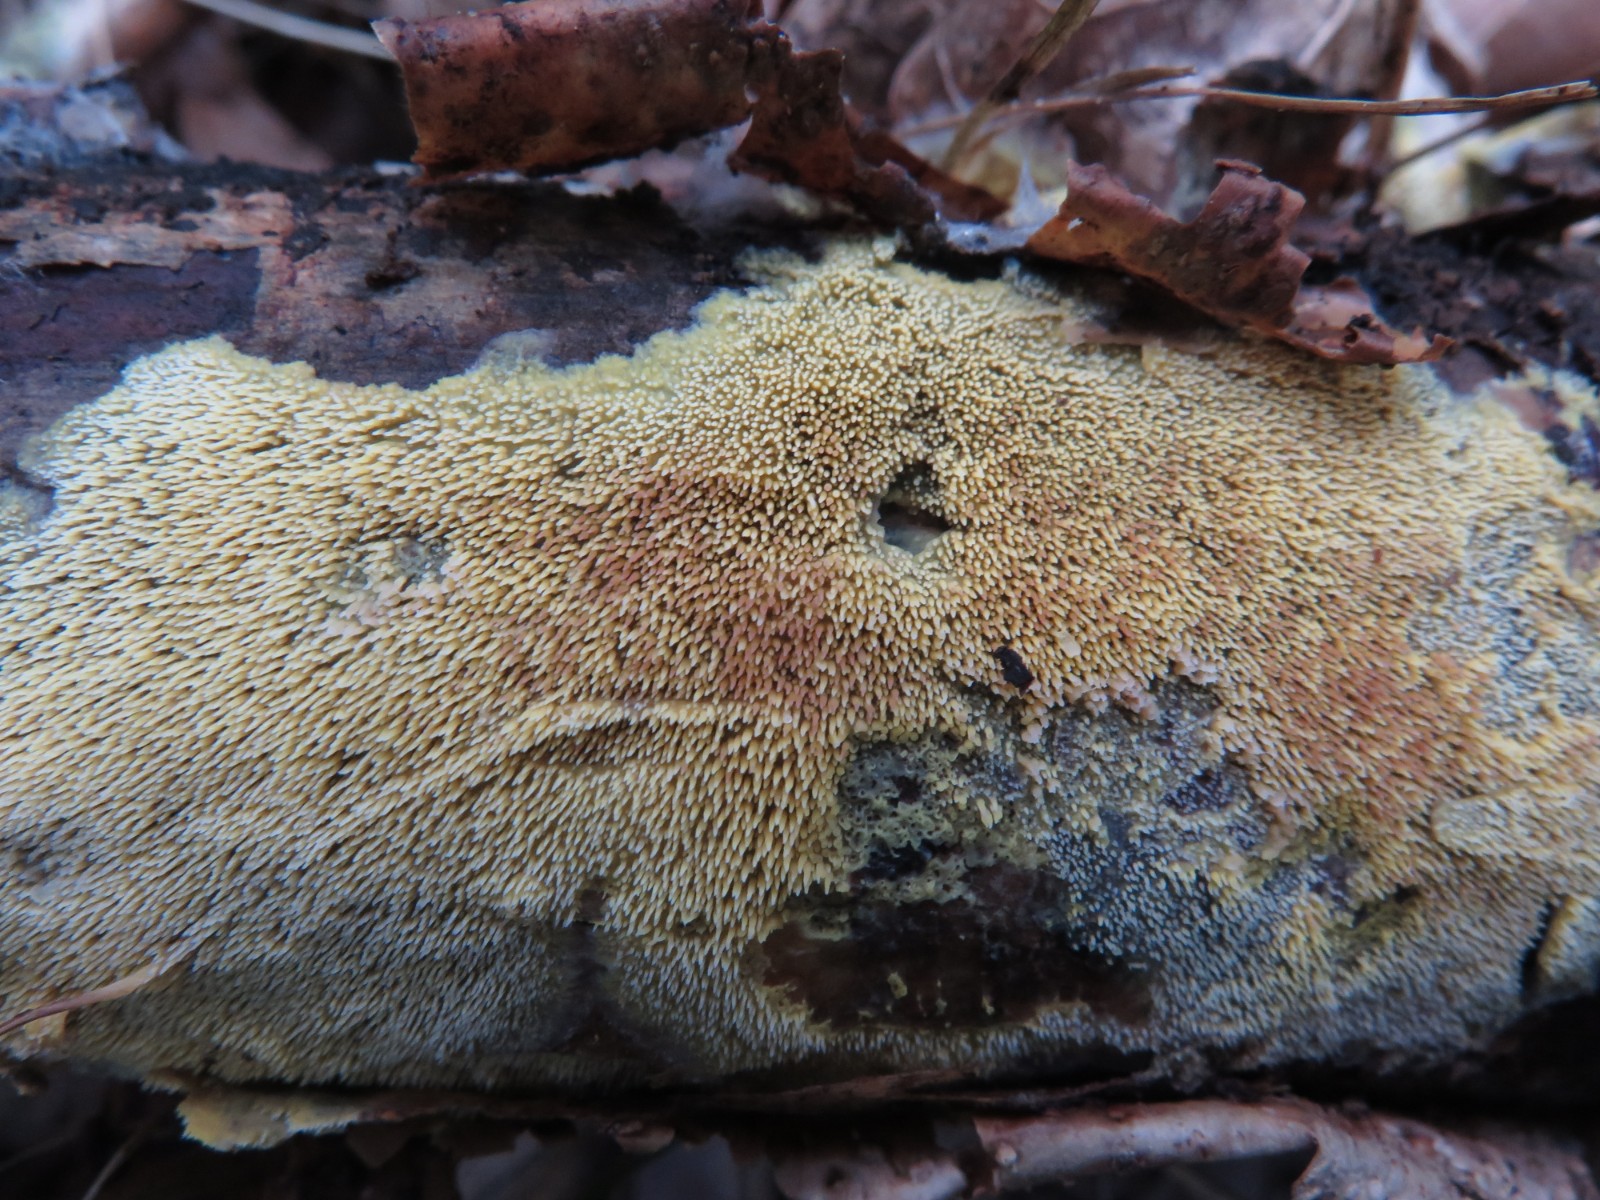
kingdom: Fungi
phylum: Basidiomycota
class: Agaricomycetes
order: Polyporales
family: Meruliaceae
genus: Mycoacia
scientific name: Mycoacia uda
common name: citrongul vokspig
